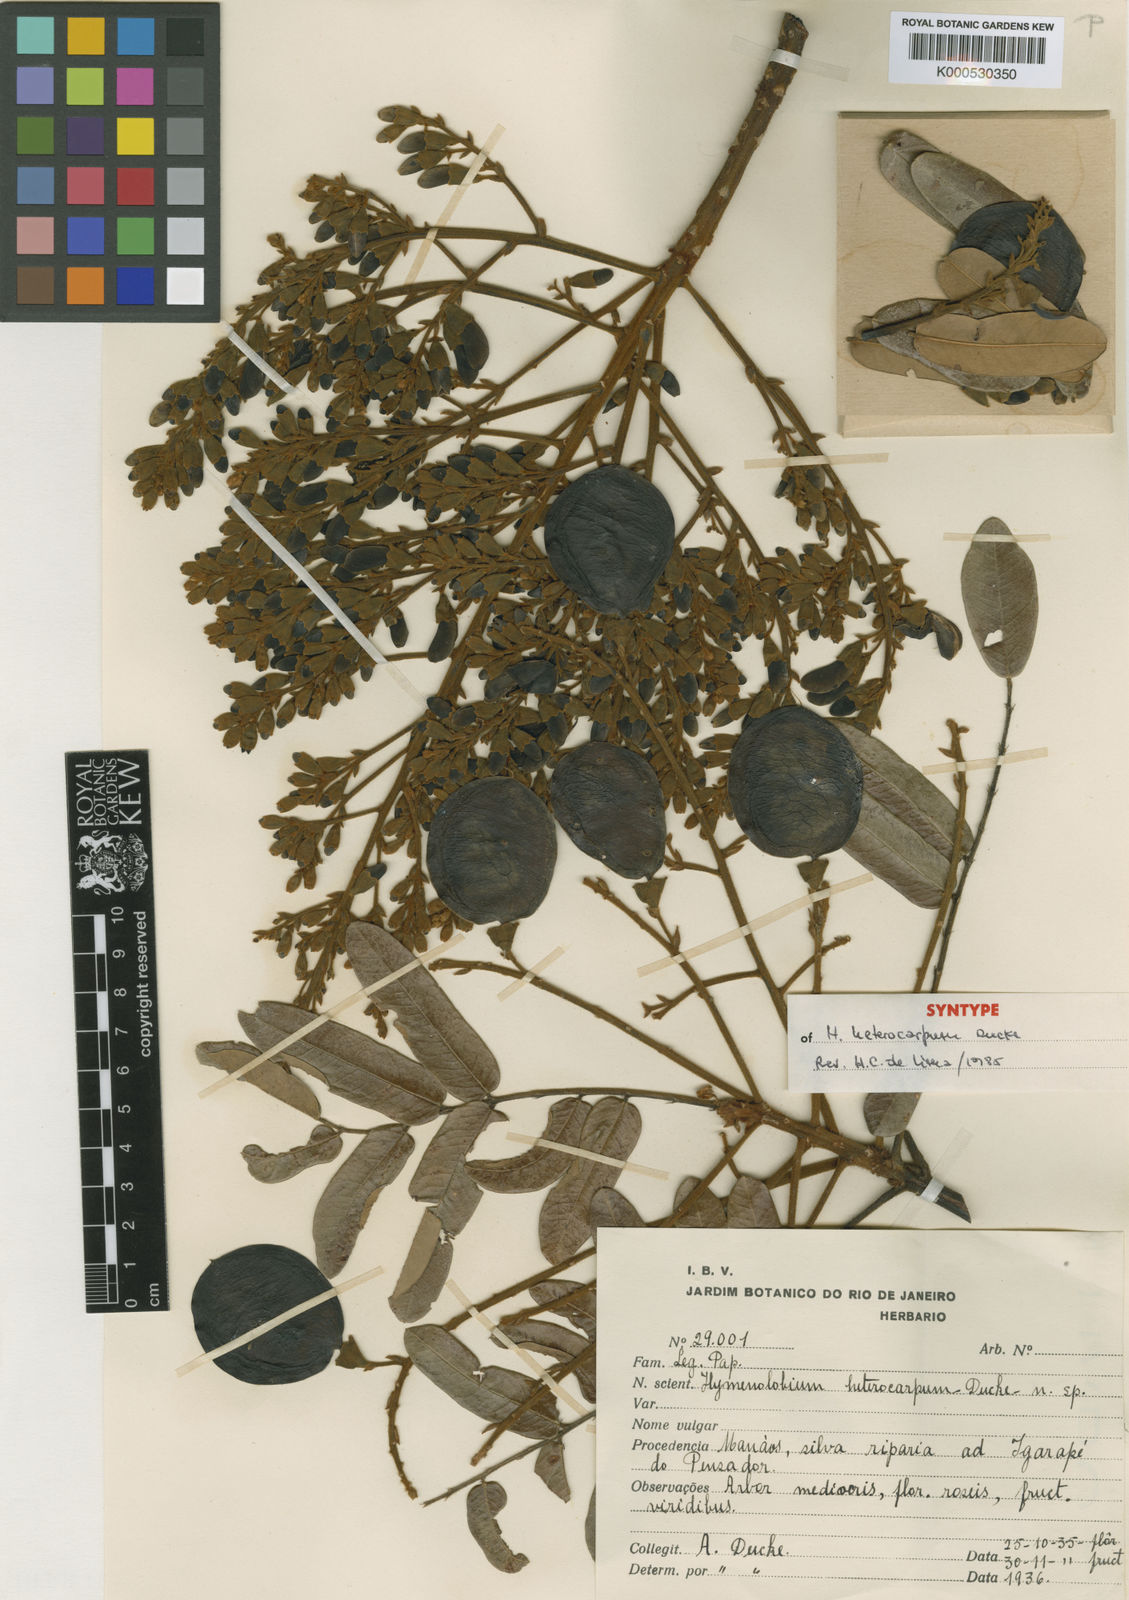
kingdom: Plantae
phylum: Tracheophyta
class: Magnoliopsida
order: Fabales
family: Fabaceae
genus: Hymenolobium
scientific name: Hymenolobium heterocarpum
